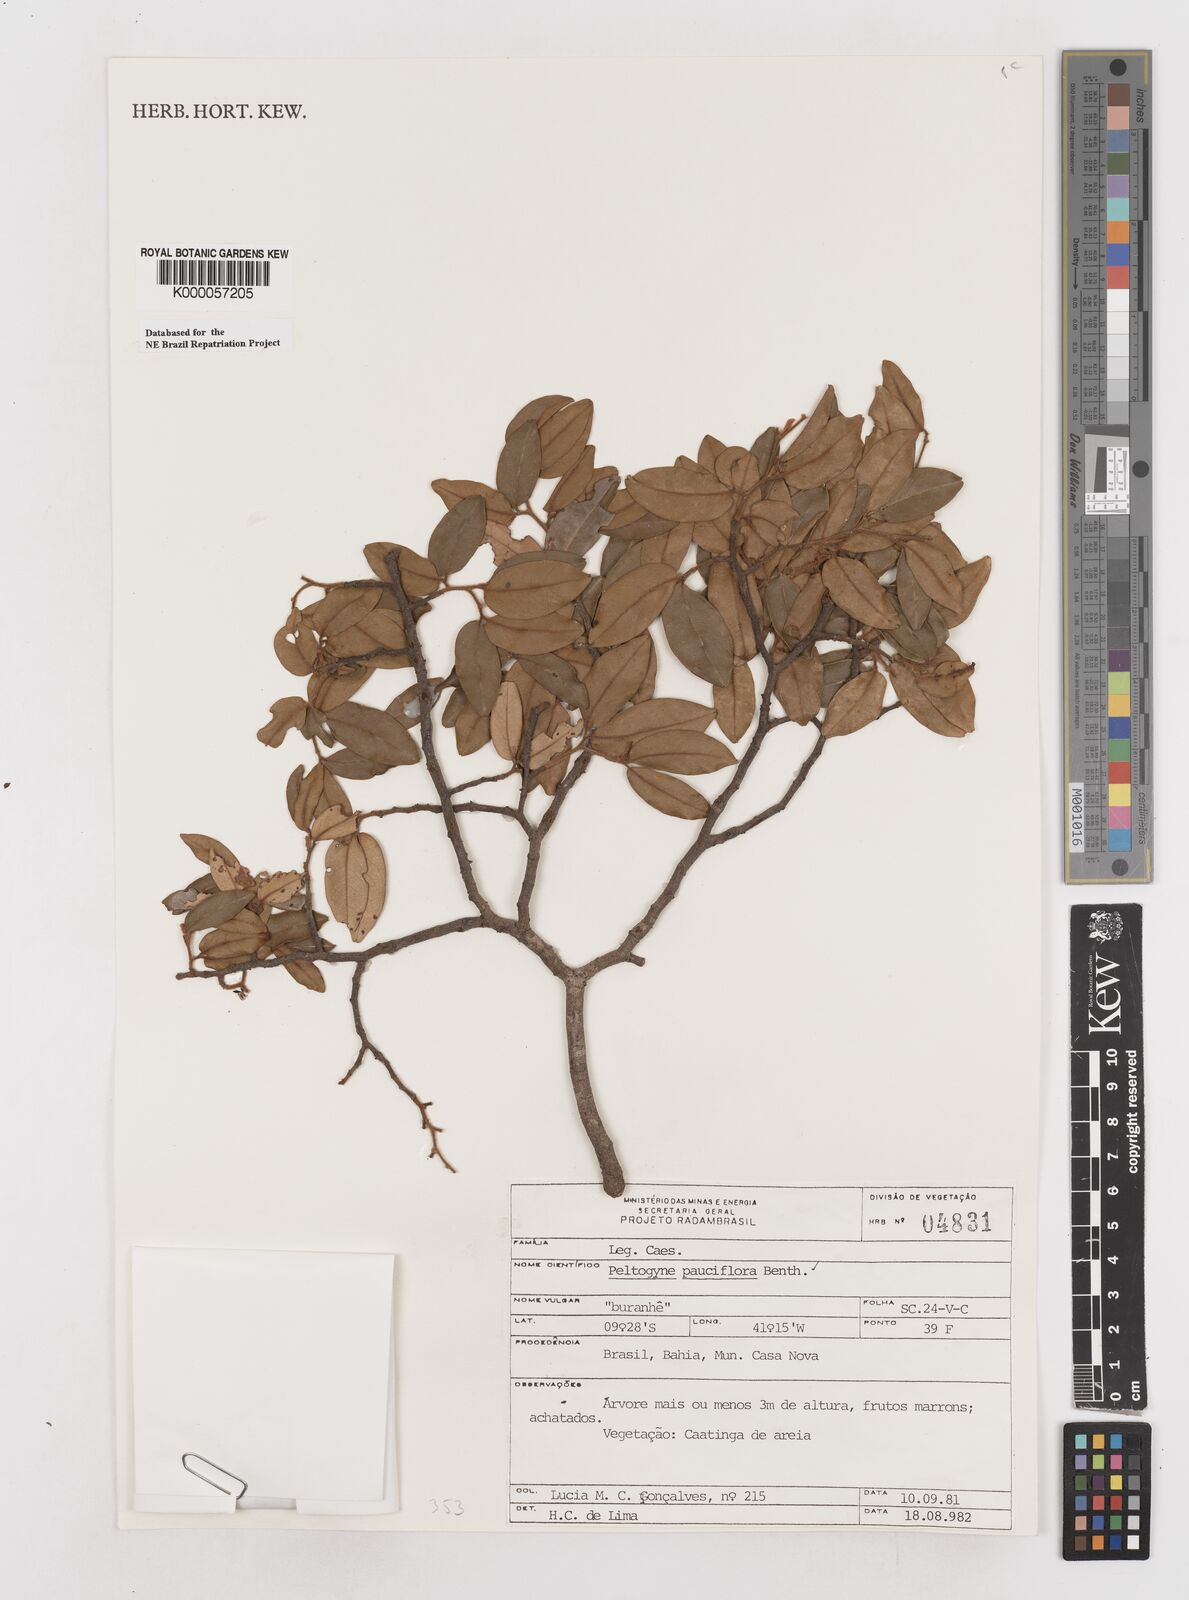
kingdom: Plantae
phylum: Tracheophyta
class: Magnoliopsida
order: Fabales
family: Fabaceae
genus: Peltogyne
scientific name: Peltogyne pauciflora
